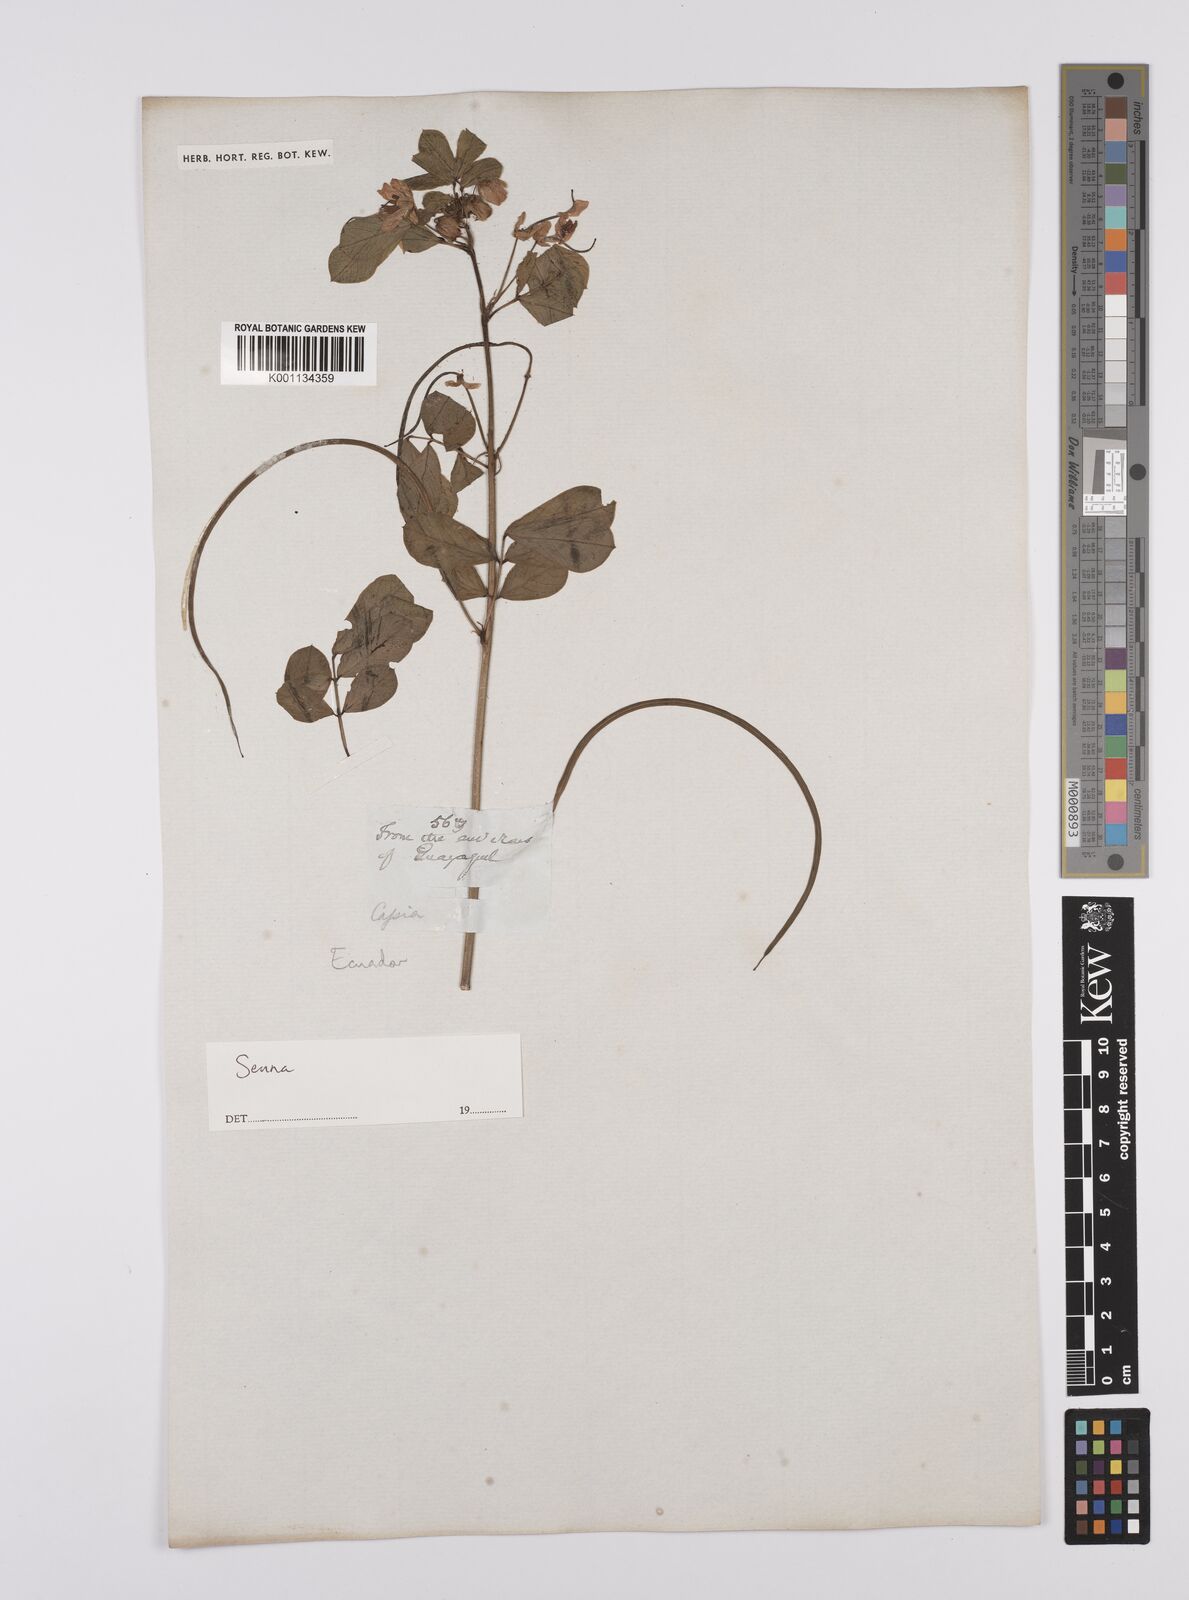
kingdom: Plantae
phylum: Tracheophyta
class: Magnoliopsida
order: Fabales
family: Fabaceae
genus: Senna
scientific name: Senna
